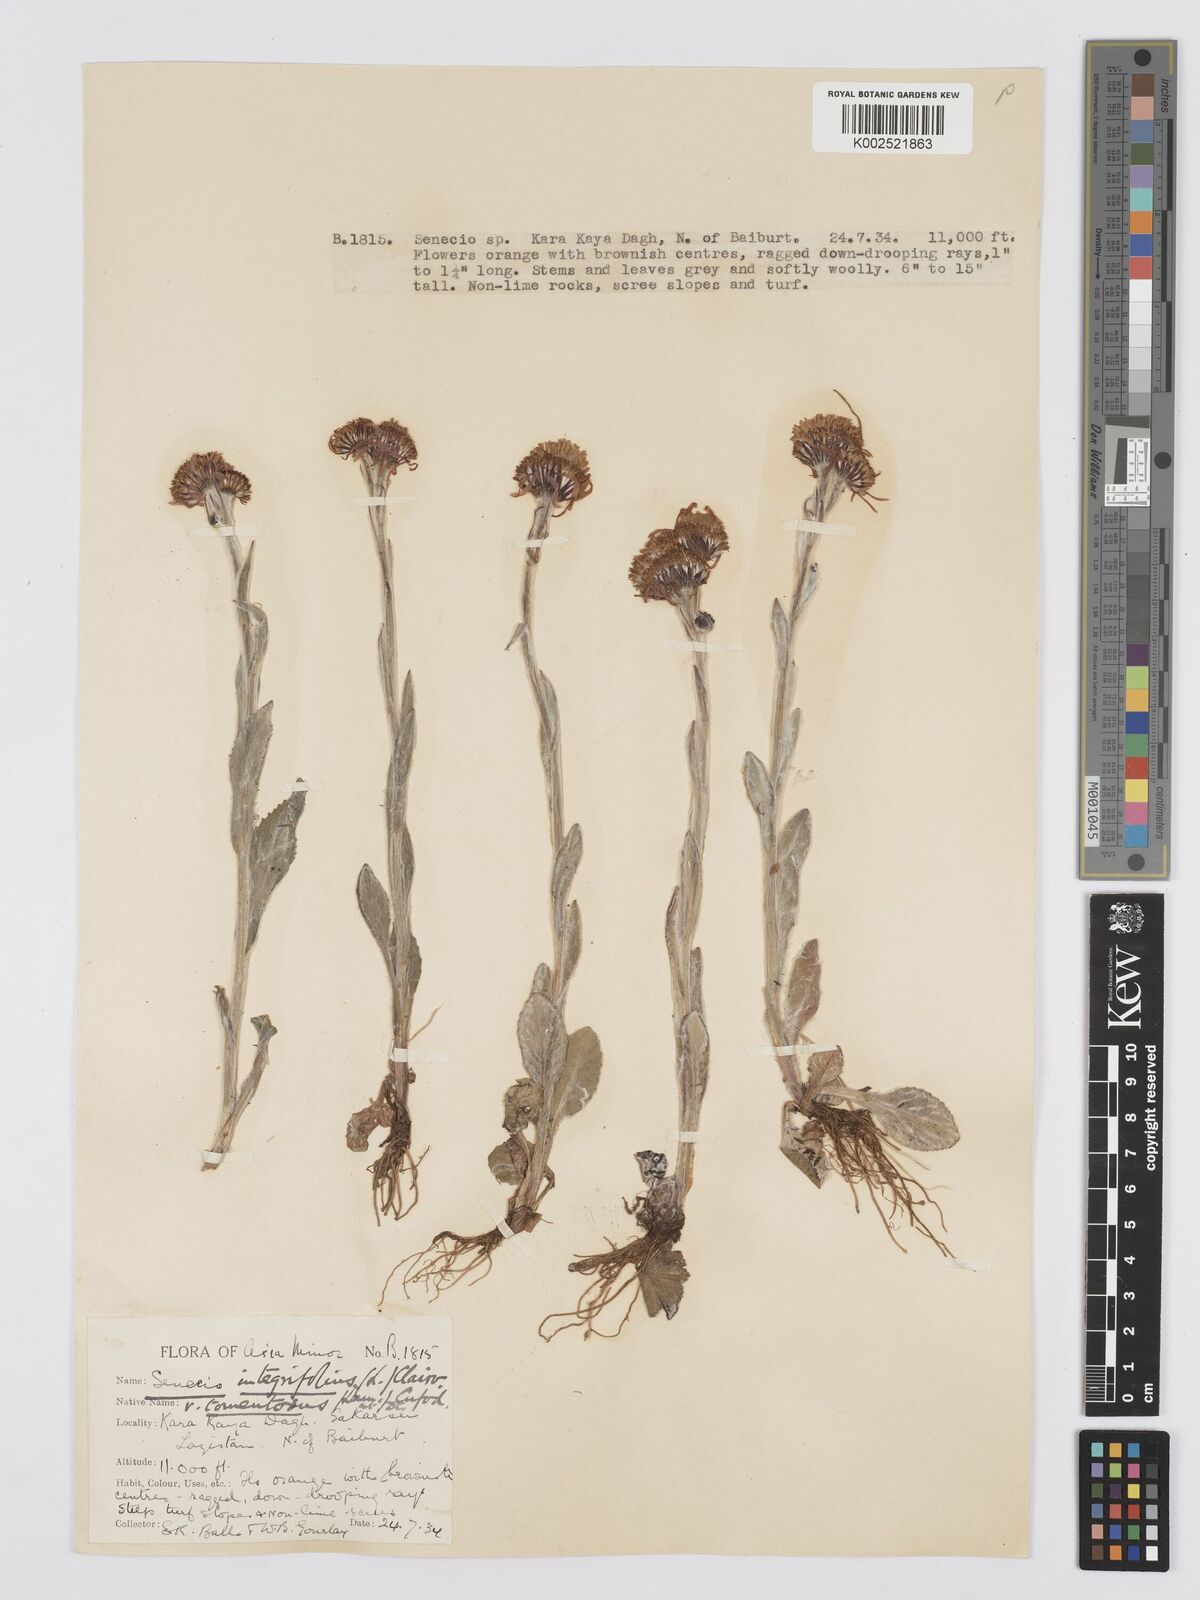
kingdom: Plantae
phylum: Tracheophyta
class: Magnoliopsida
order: Asterales
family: Asteraceae
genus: Tephroseris
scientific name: Tephroseris integrifolia
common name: Field fleawort
